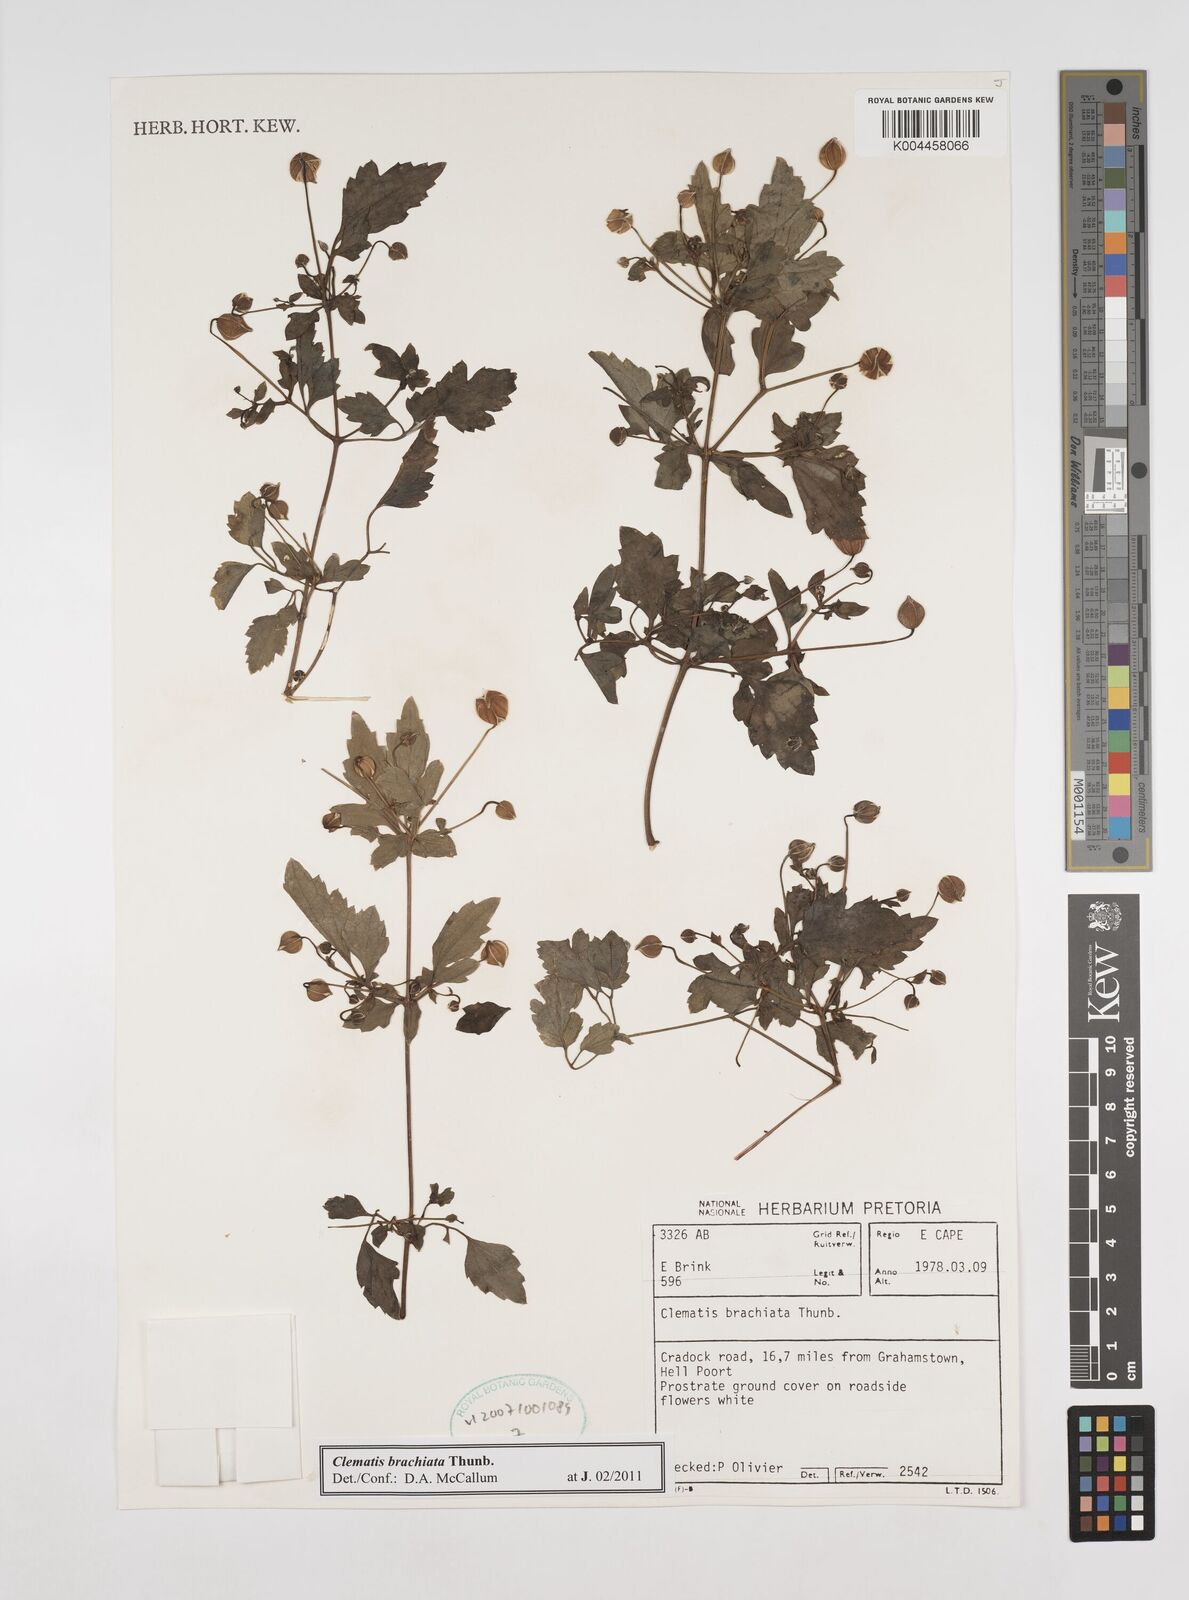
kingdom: Plantae
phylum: Tracheophyta
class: Magnoliopsida
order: Ranunculales
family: Ranunculaceae
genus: Clematis
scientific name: Clematis brachiata
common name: Traveler's-joy
